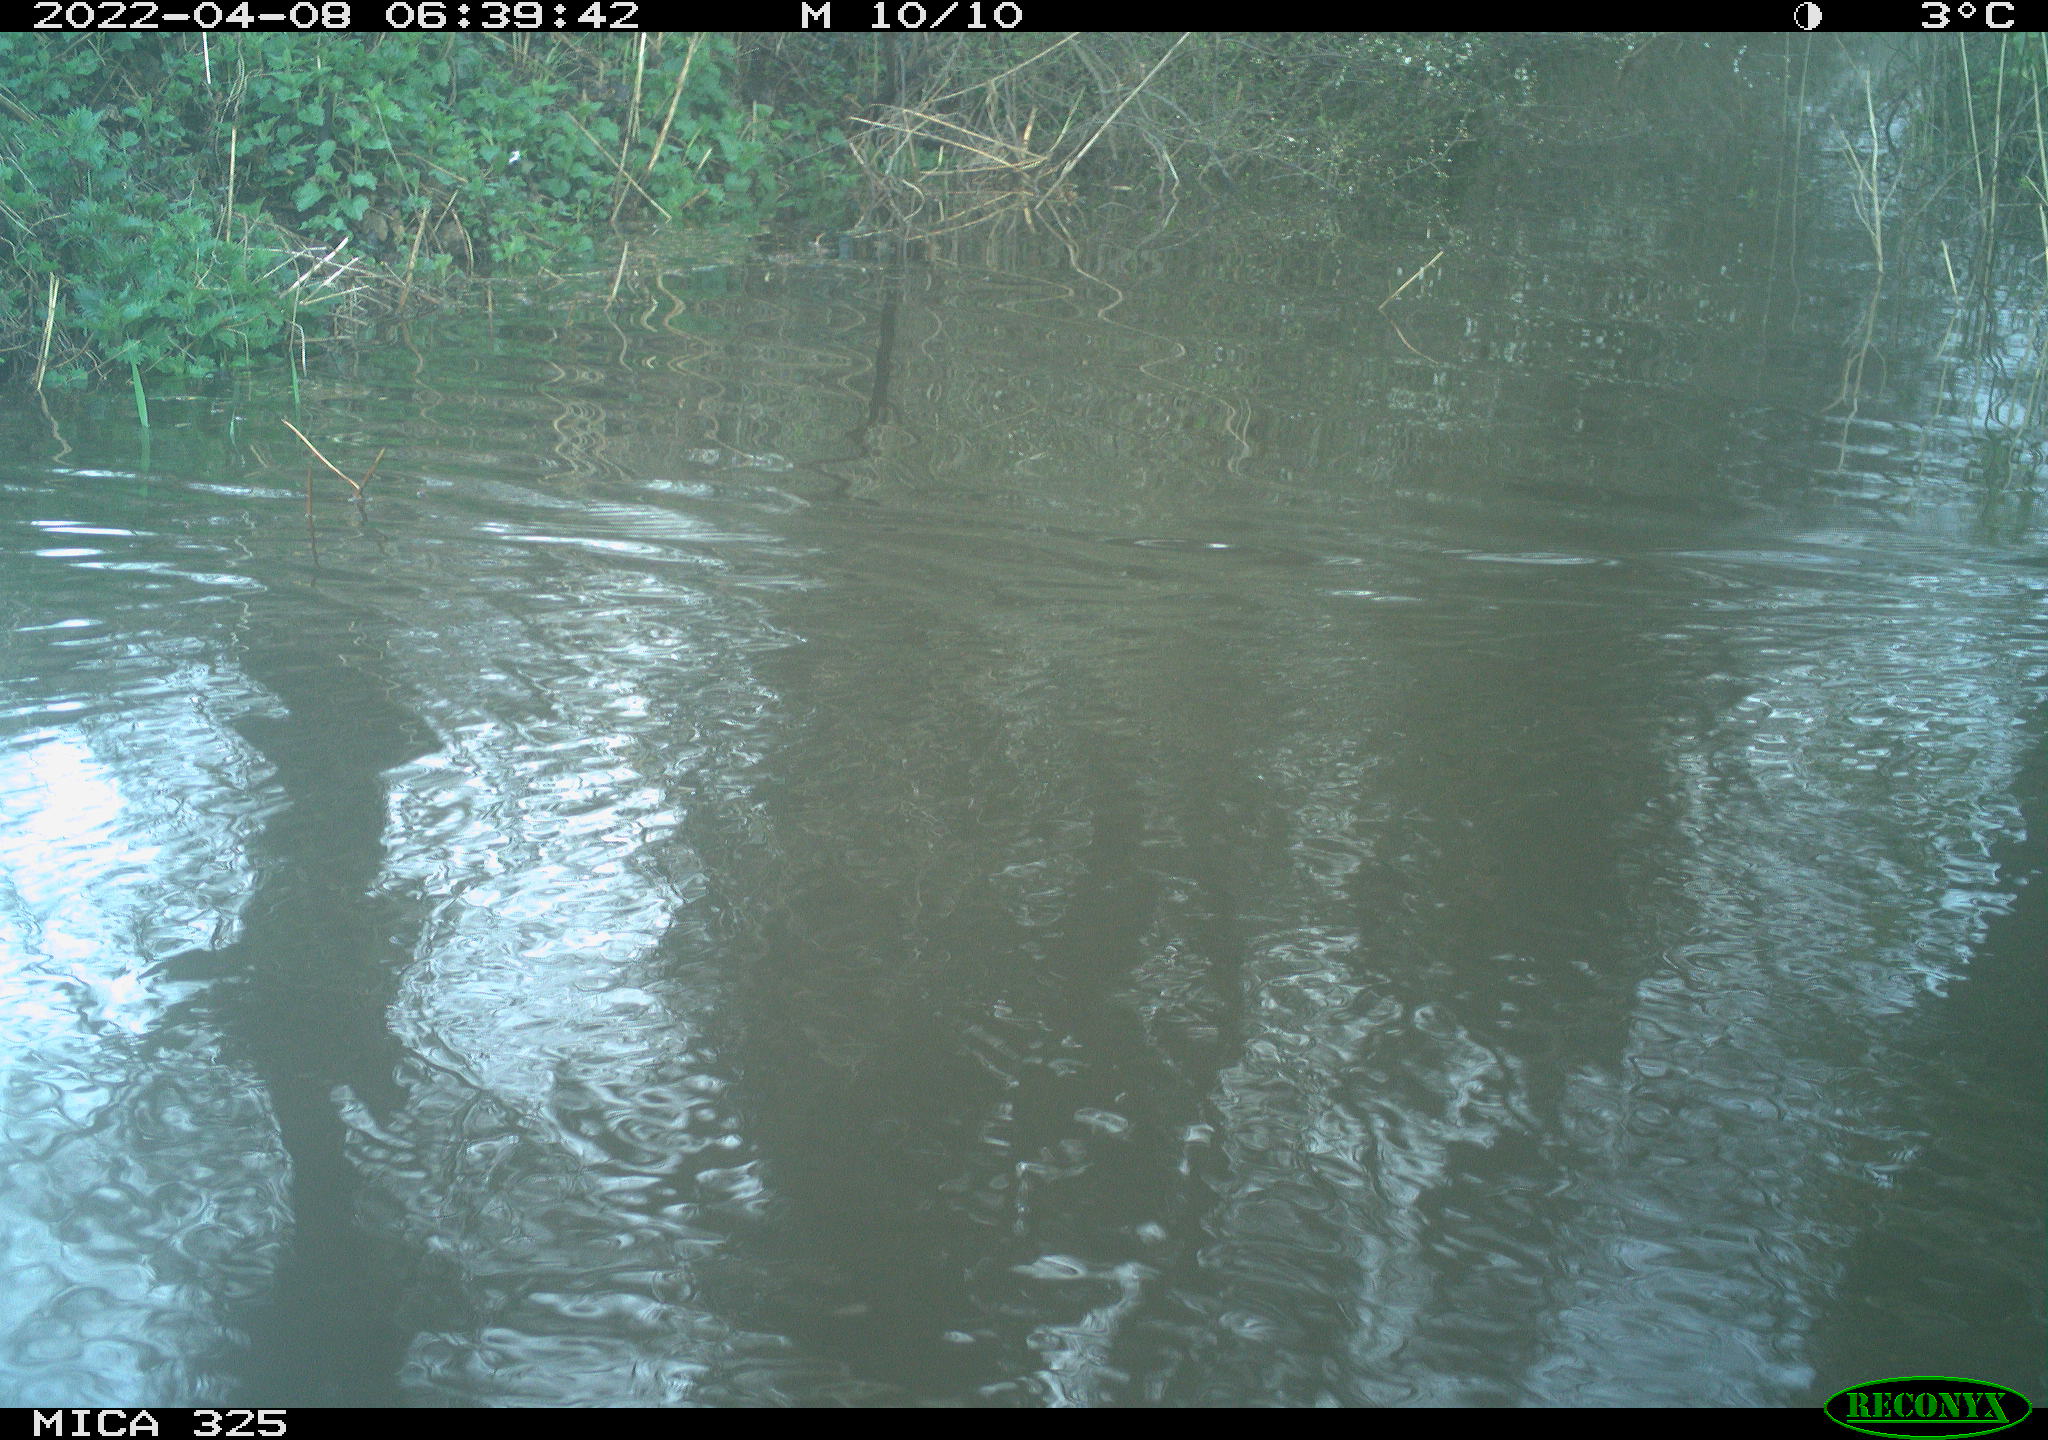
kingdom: Animalia
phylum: Chordata
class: Aves
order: Anseriformes
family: Anatidae
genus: Anas
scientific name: Anas platyrhynchos
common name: Mallard
